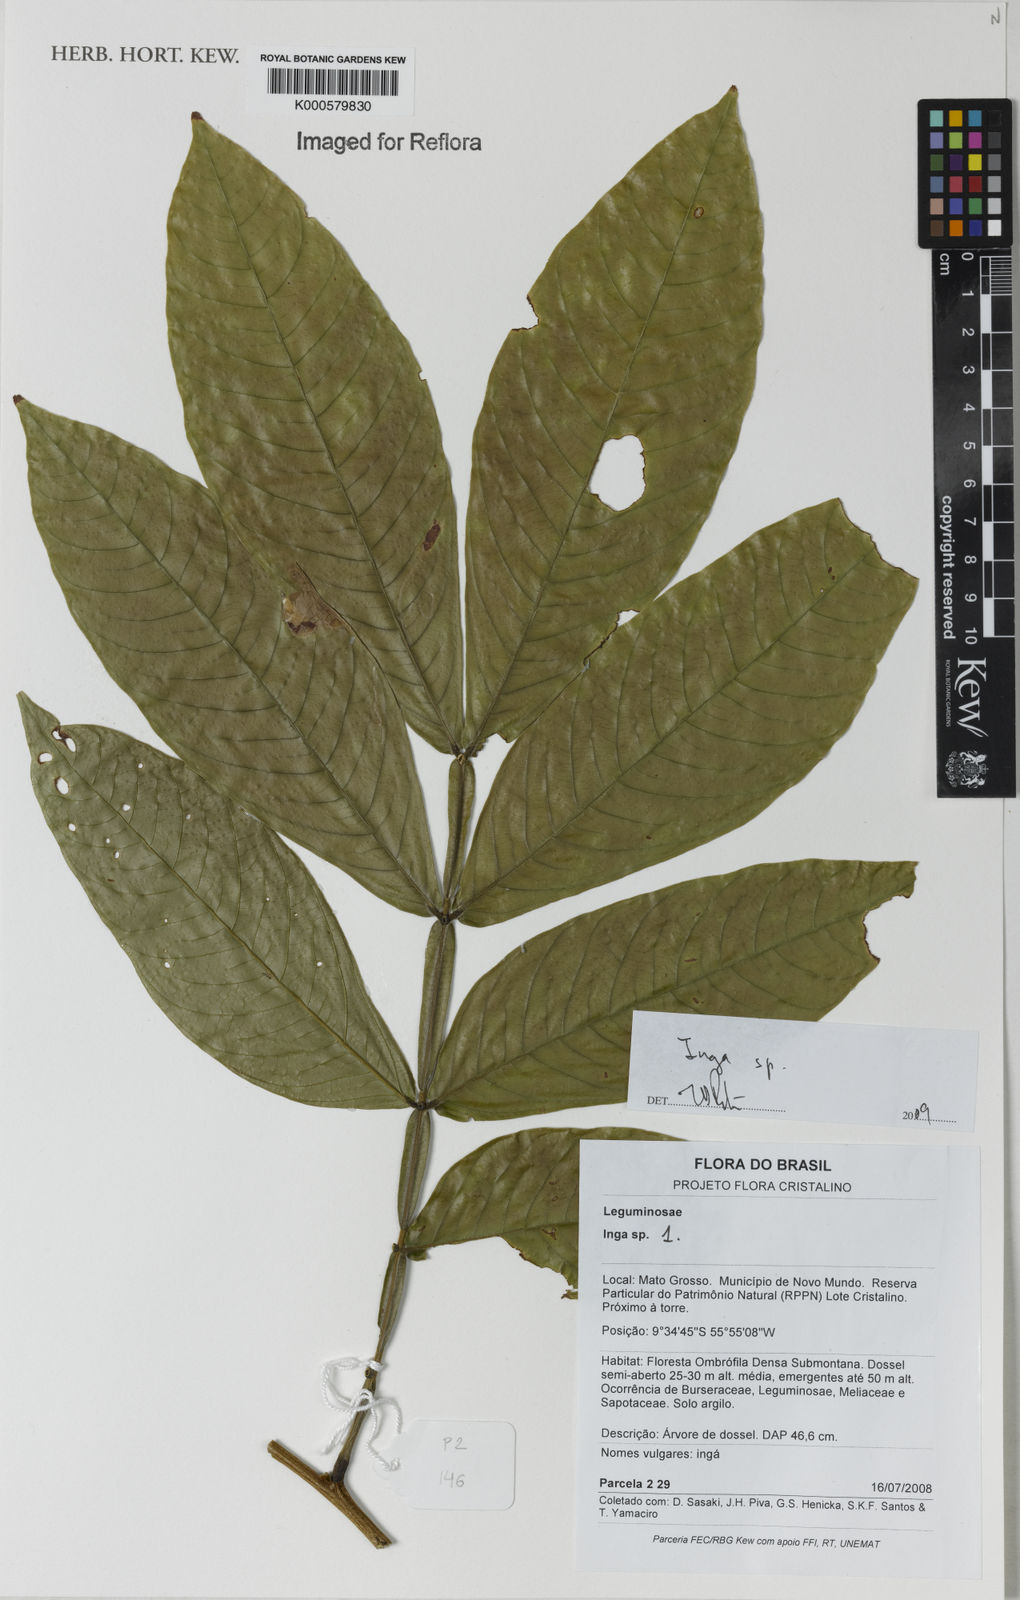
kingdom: Plantae
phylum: Tracheophyta
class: Magnoliopsida
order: Fabales
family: Fabaceae
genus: Inga
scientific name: Inga
